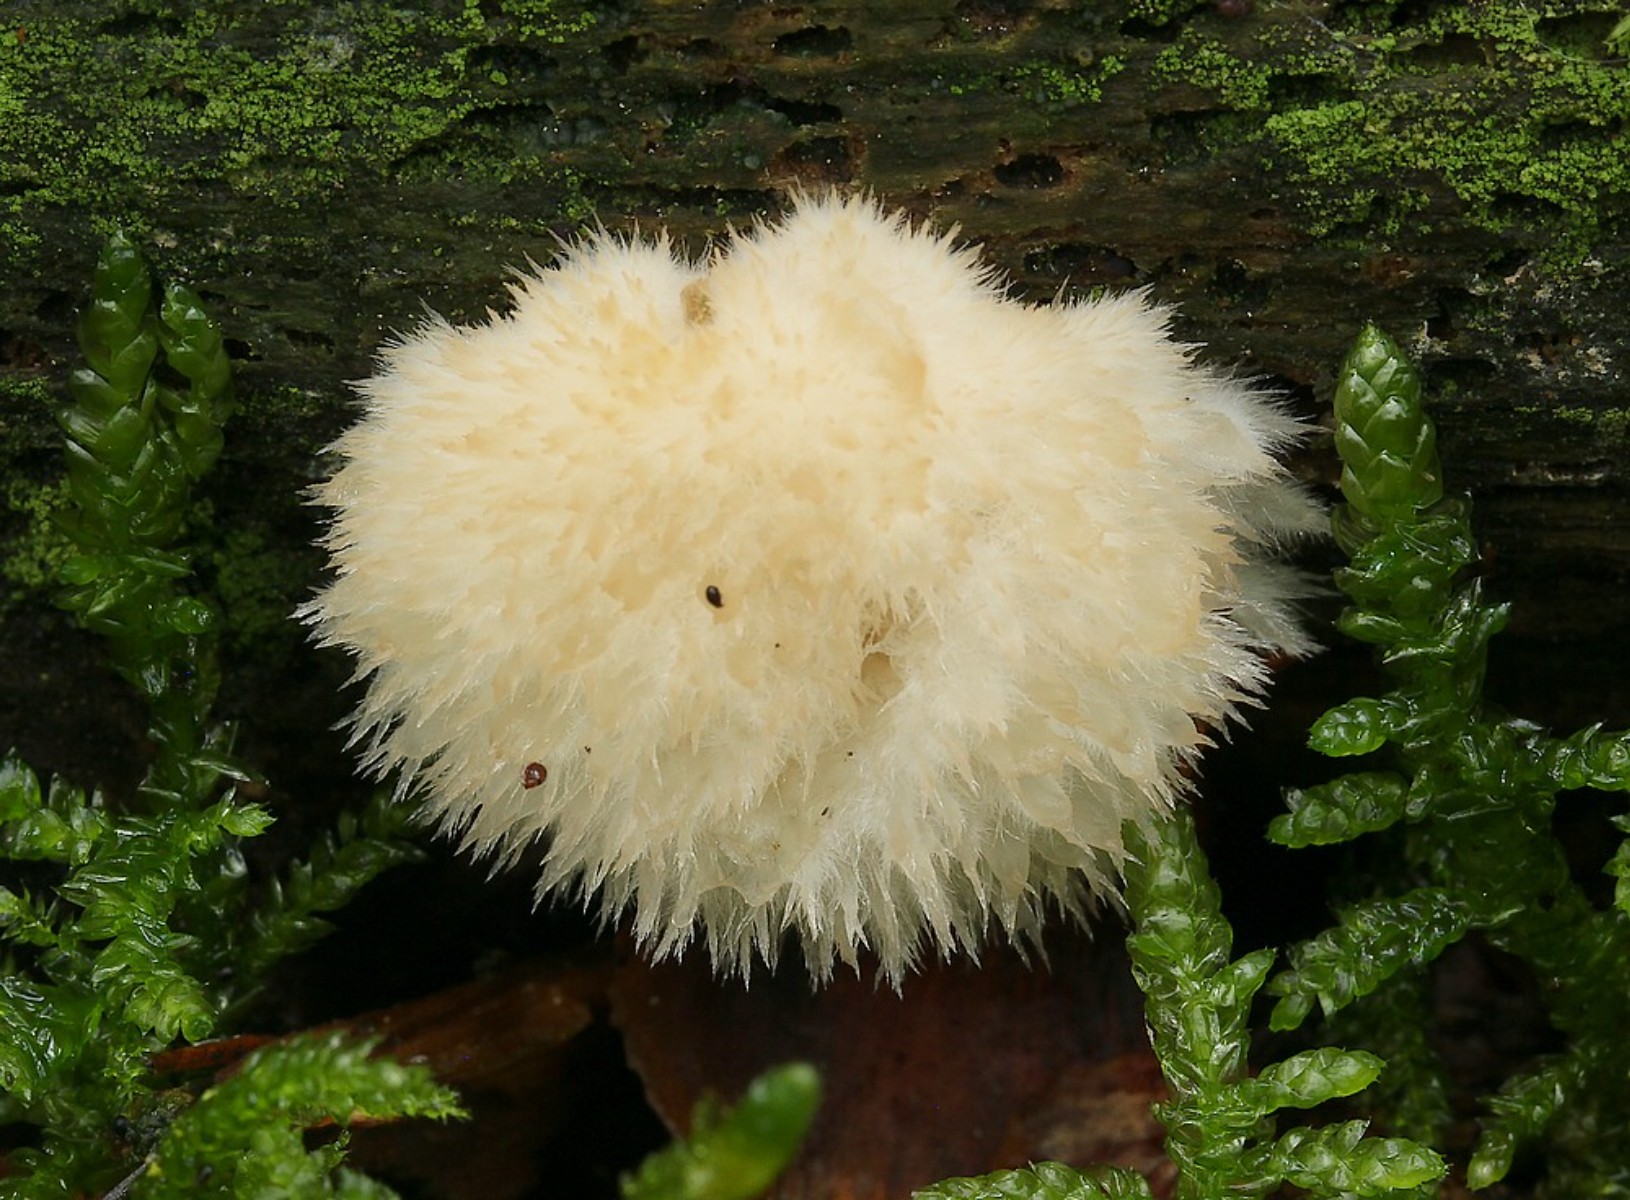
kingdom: Fungi
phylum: Basidiomycota
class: Agaricomycetes
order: Polyporales
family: Dacryobolaceae
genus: Postia
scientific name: Postia ptychogaster
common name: støvende kødporesvamp
